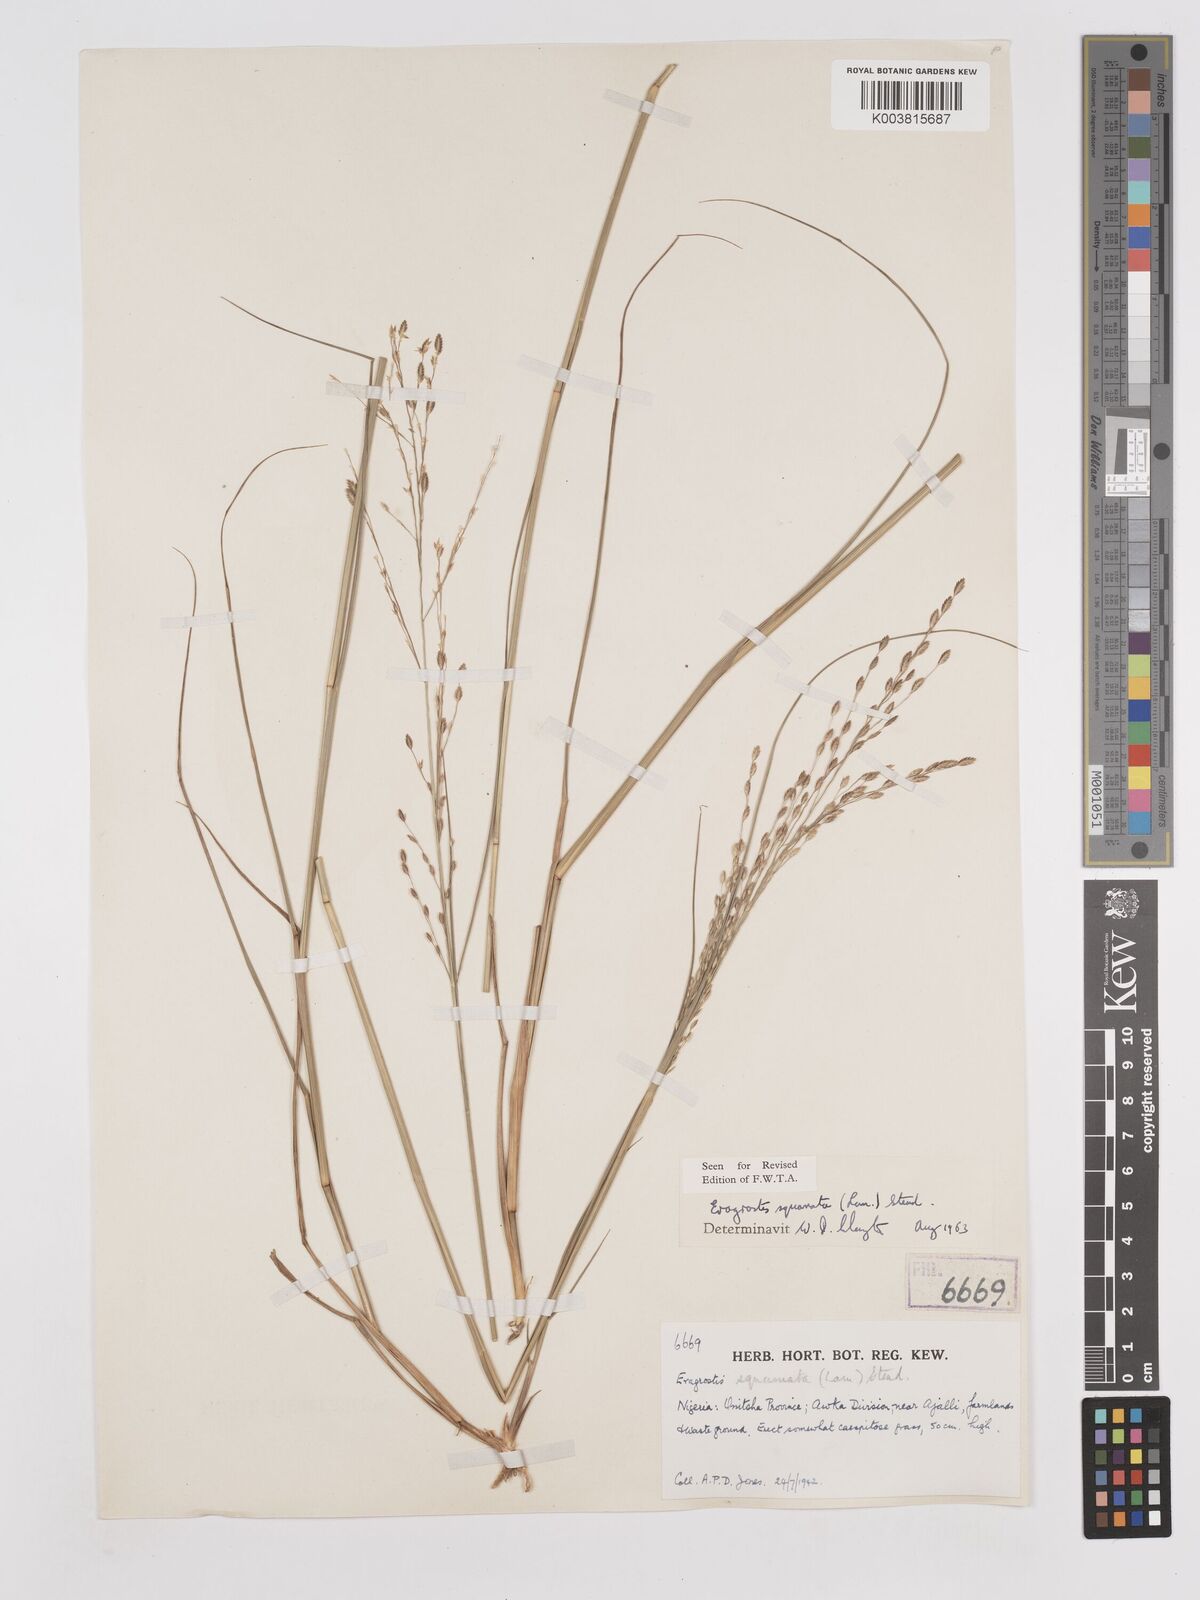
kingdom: Plantae
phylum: Tracheophyta
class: Liliopsida
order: Poales
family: Poaceae
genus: Eragrostis
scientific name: Eragrostis squamata
